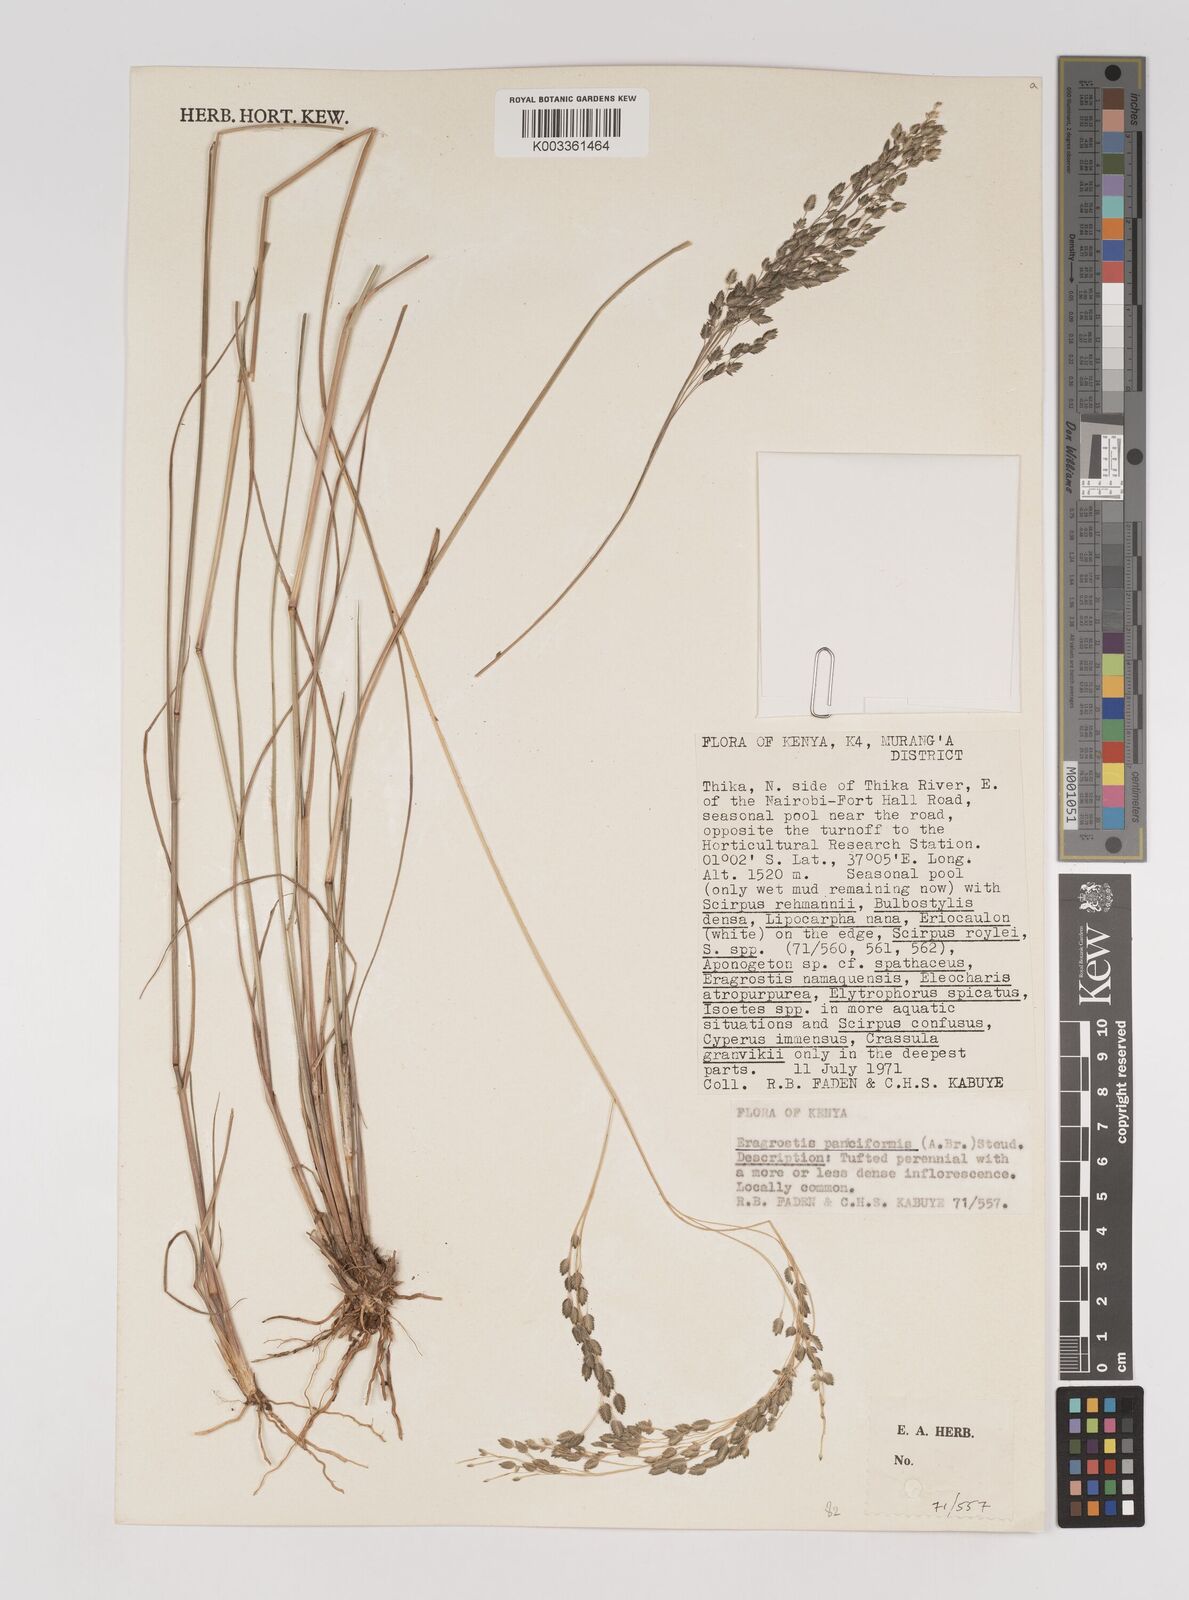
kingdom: Plantae
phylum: Tracheophyta
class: Liliopsida
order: Poales
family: Poaceae
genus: Eragrostis
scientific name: Eragrostis paniciformis
